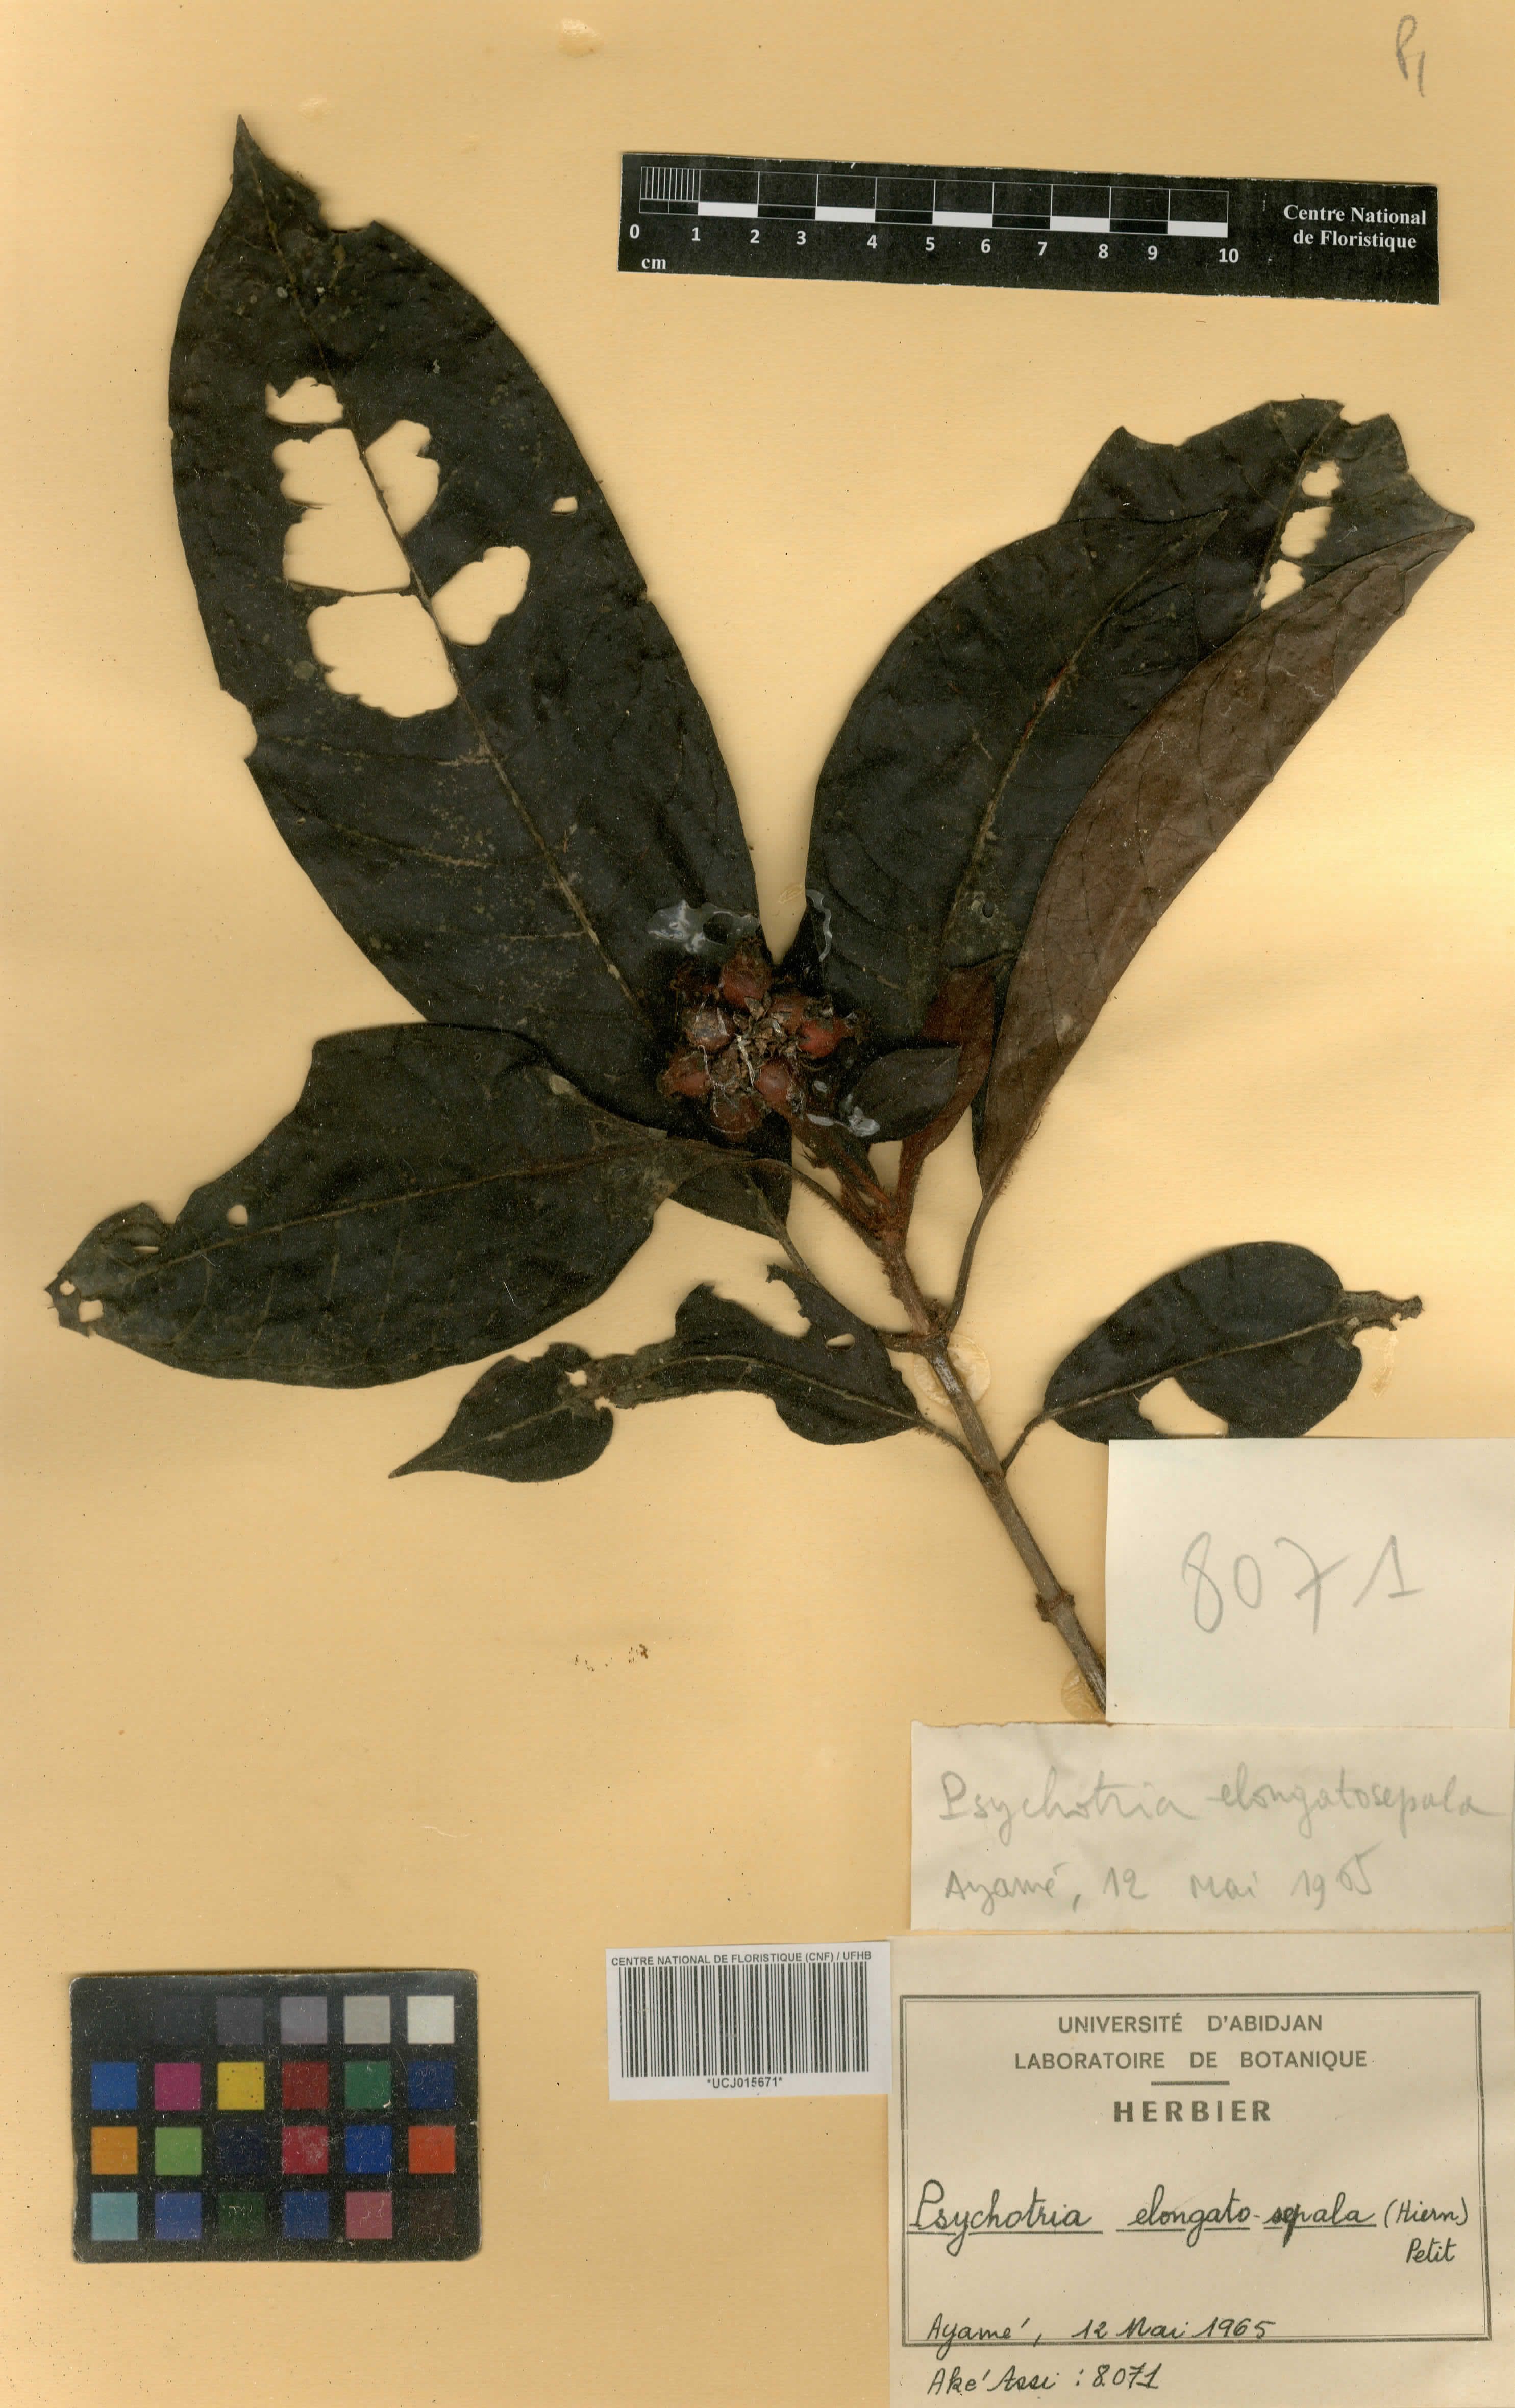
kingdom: Plantae
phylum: Tracheophyta
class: Magnoliopsida
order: Gentianales
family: Rubiaceae
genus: Psychotria
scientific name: Psychotria elongatosepala
